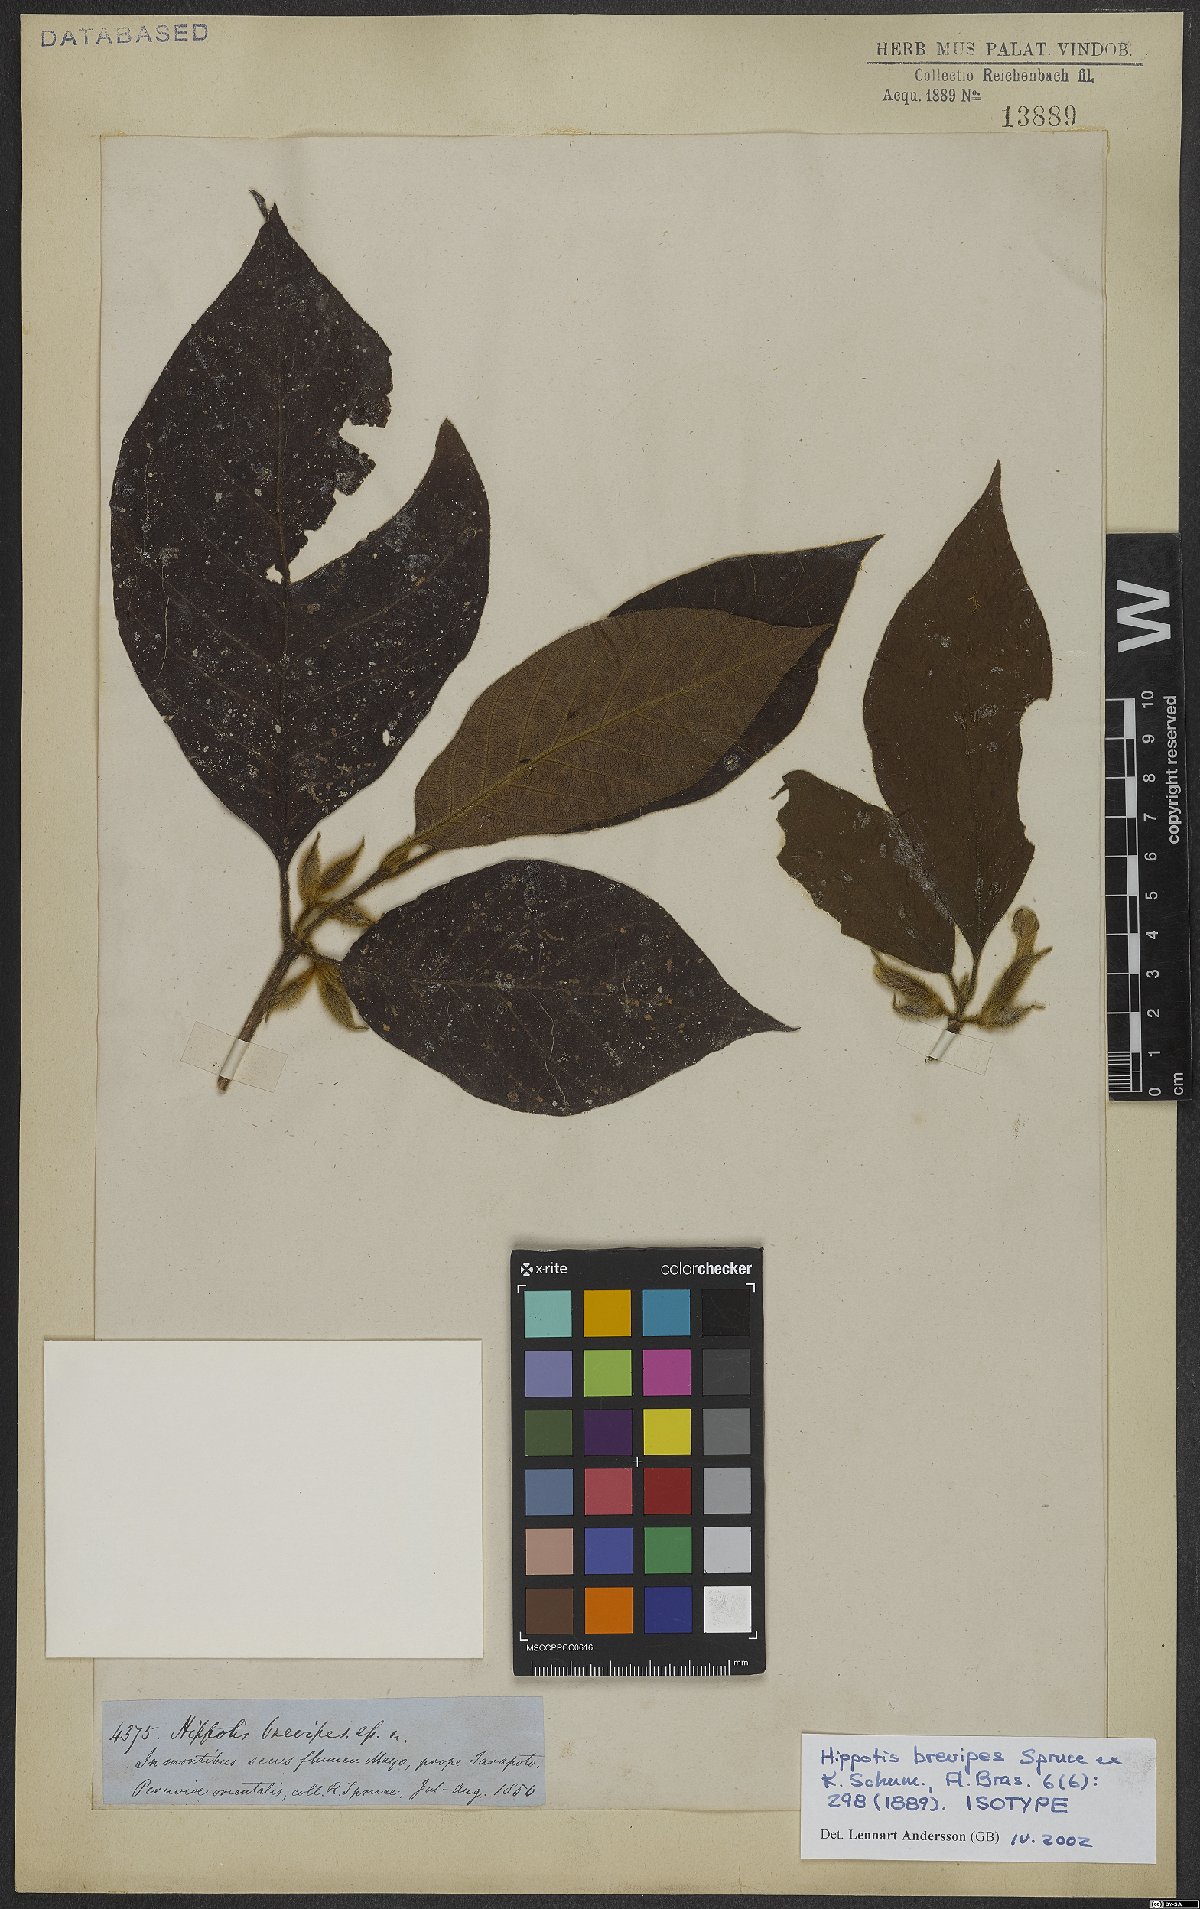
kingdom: Plantae
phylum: Tracheophyta
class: Magnoliopsida
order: Gentianales
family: Rubiaceae
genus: Hippotis
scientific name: Hippotis brevipes
